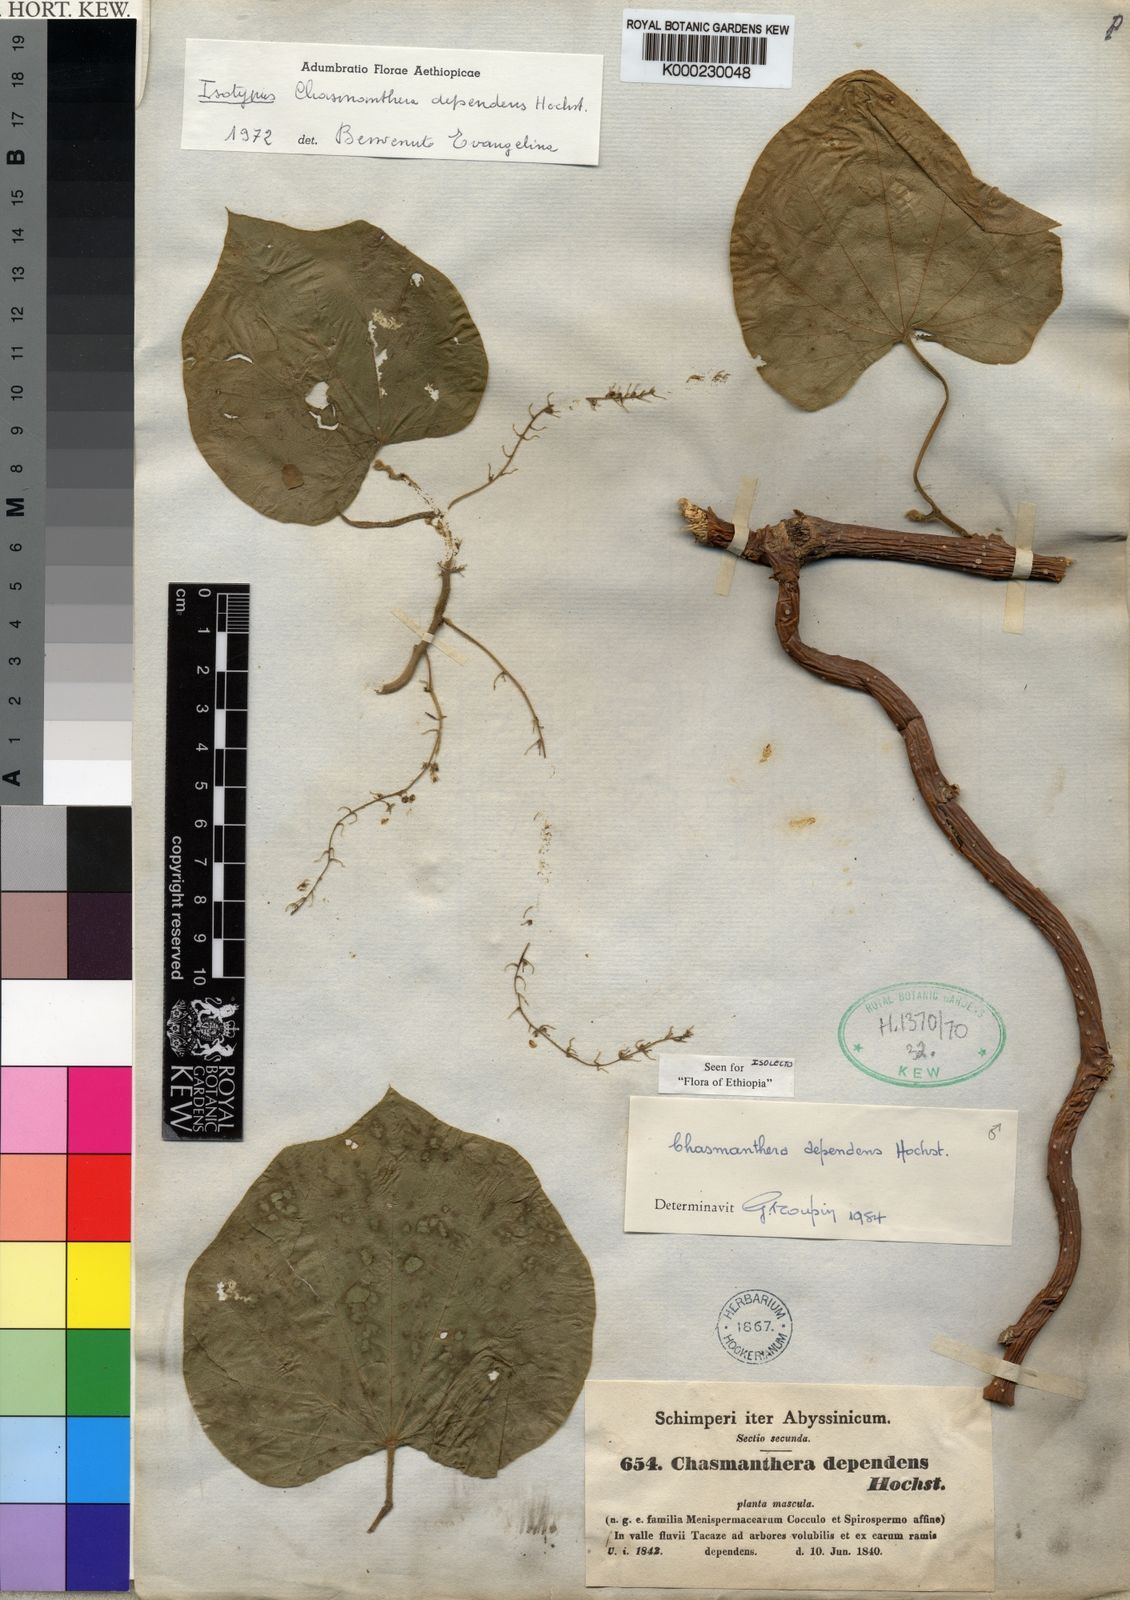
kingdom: Plantae
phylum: Tracheophyta
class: Magnoliopsida
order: Ranunculales
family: Menispermaceae
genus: Chasmanthera
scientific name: Chasmanthera dependens
